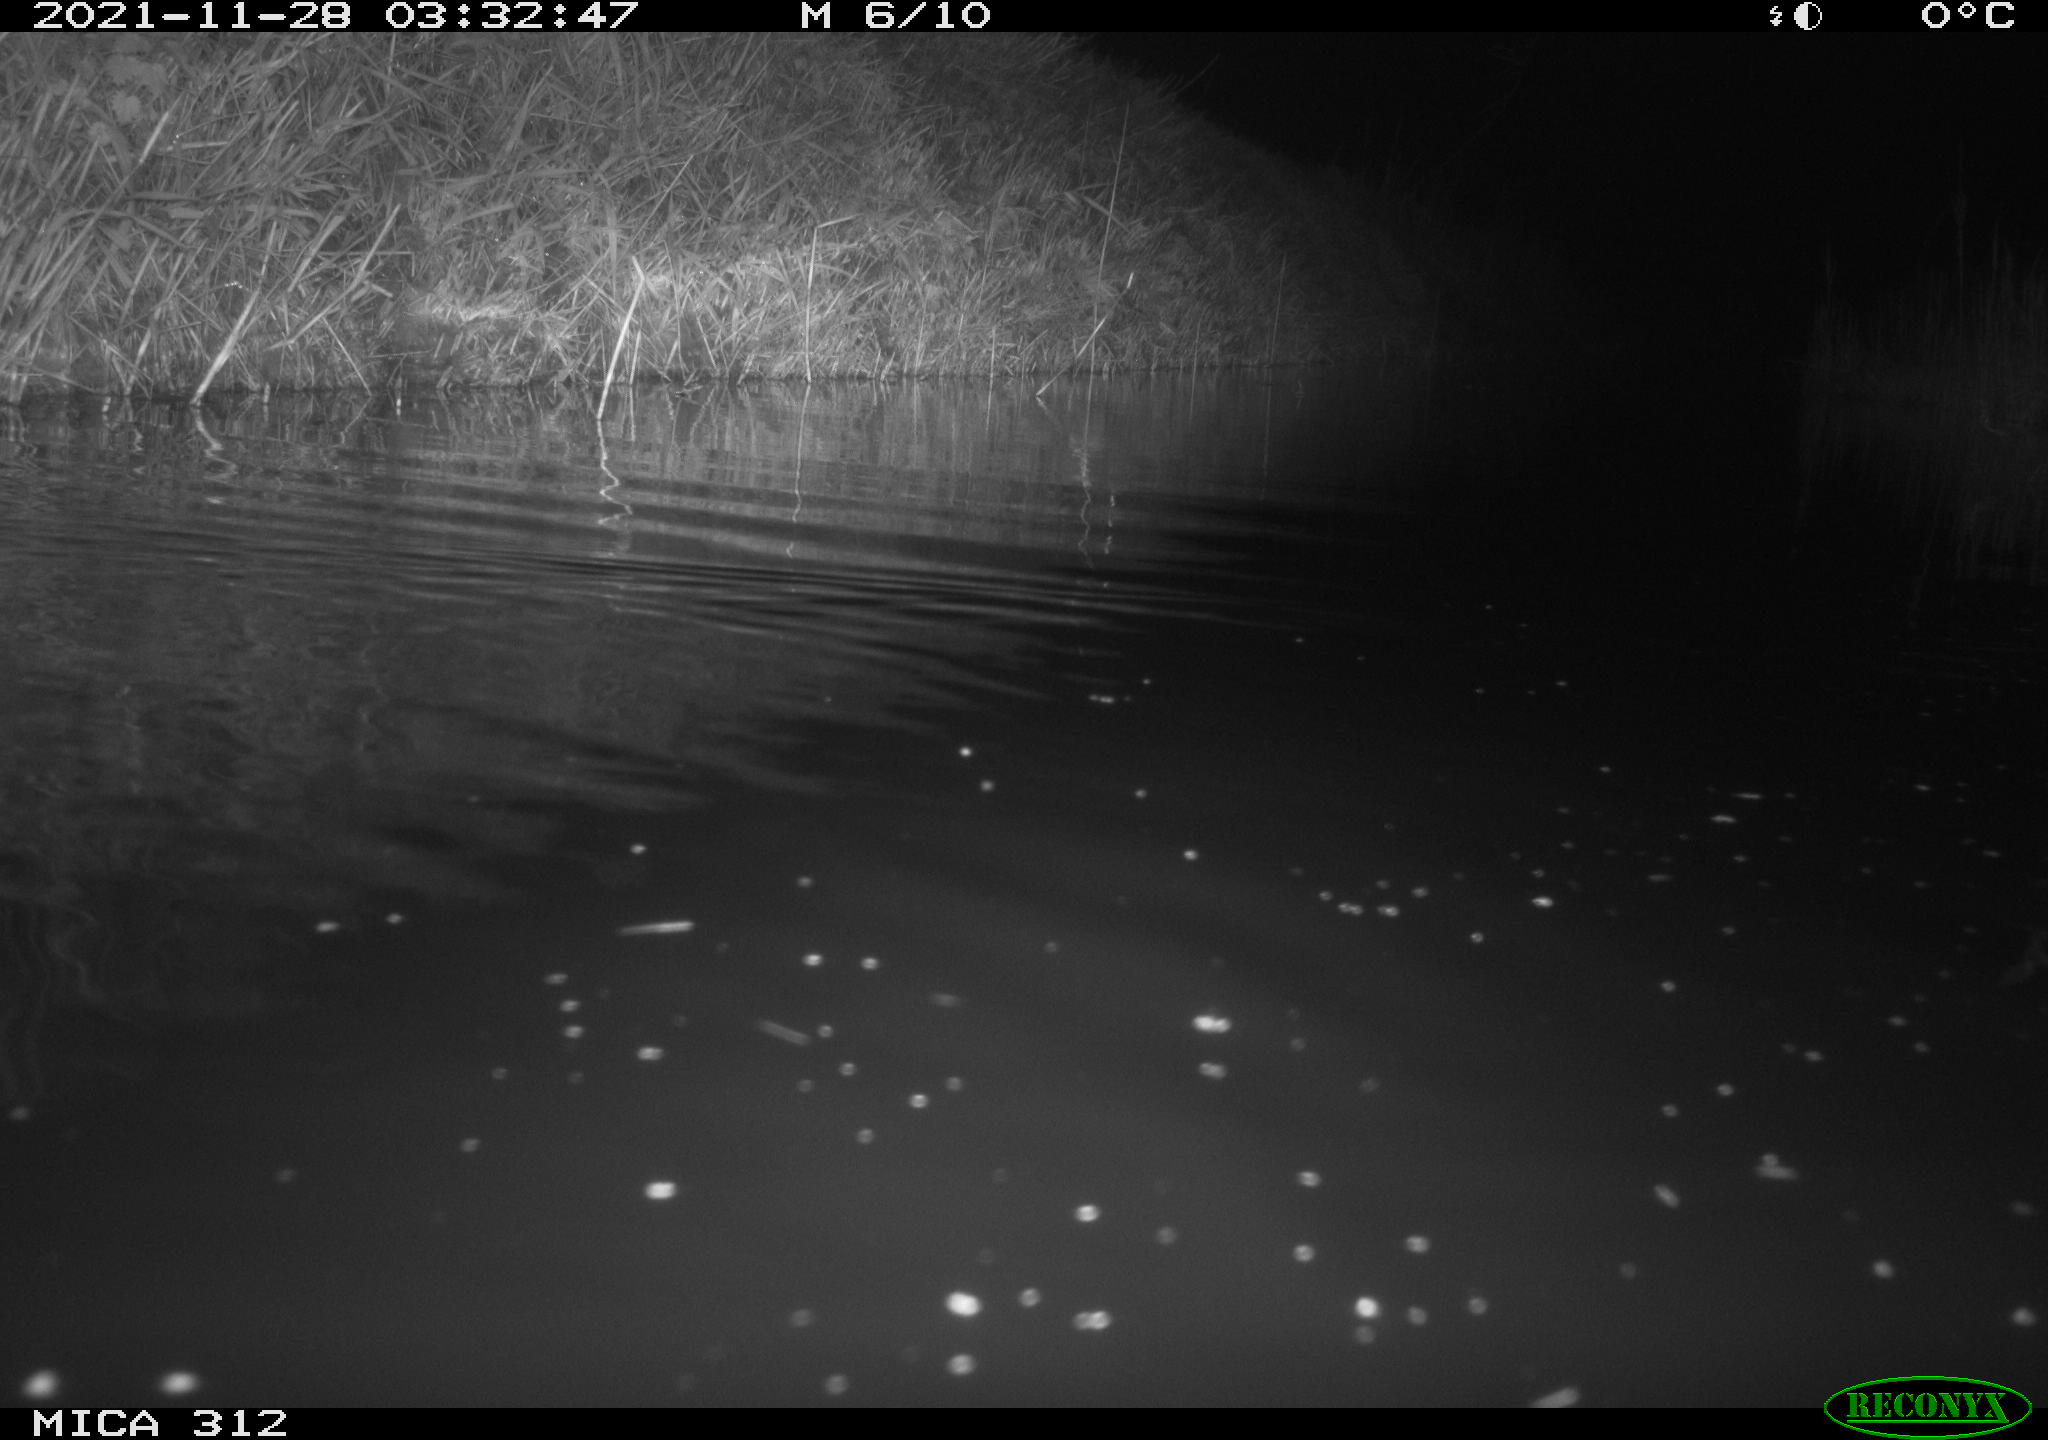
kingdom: Animalia
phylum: Chordata
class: Mammalia
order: Rodentia
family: Muridae
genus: Rattus
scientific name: Rattus norvegicus
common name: Brown rat
